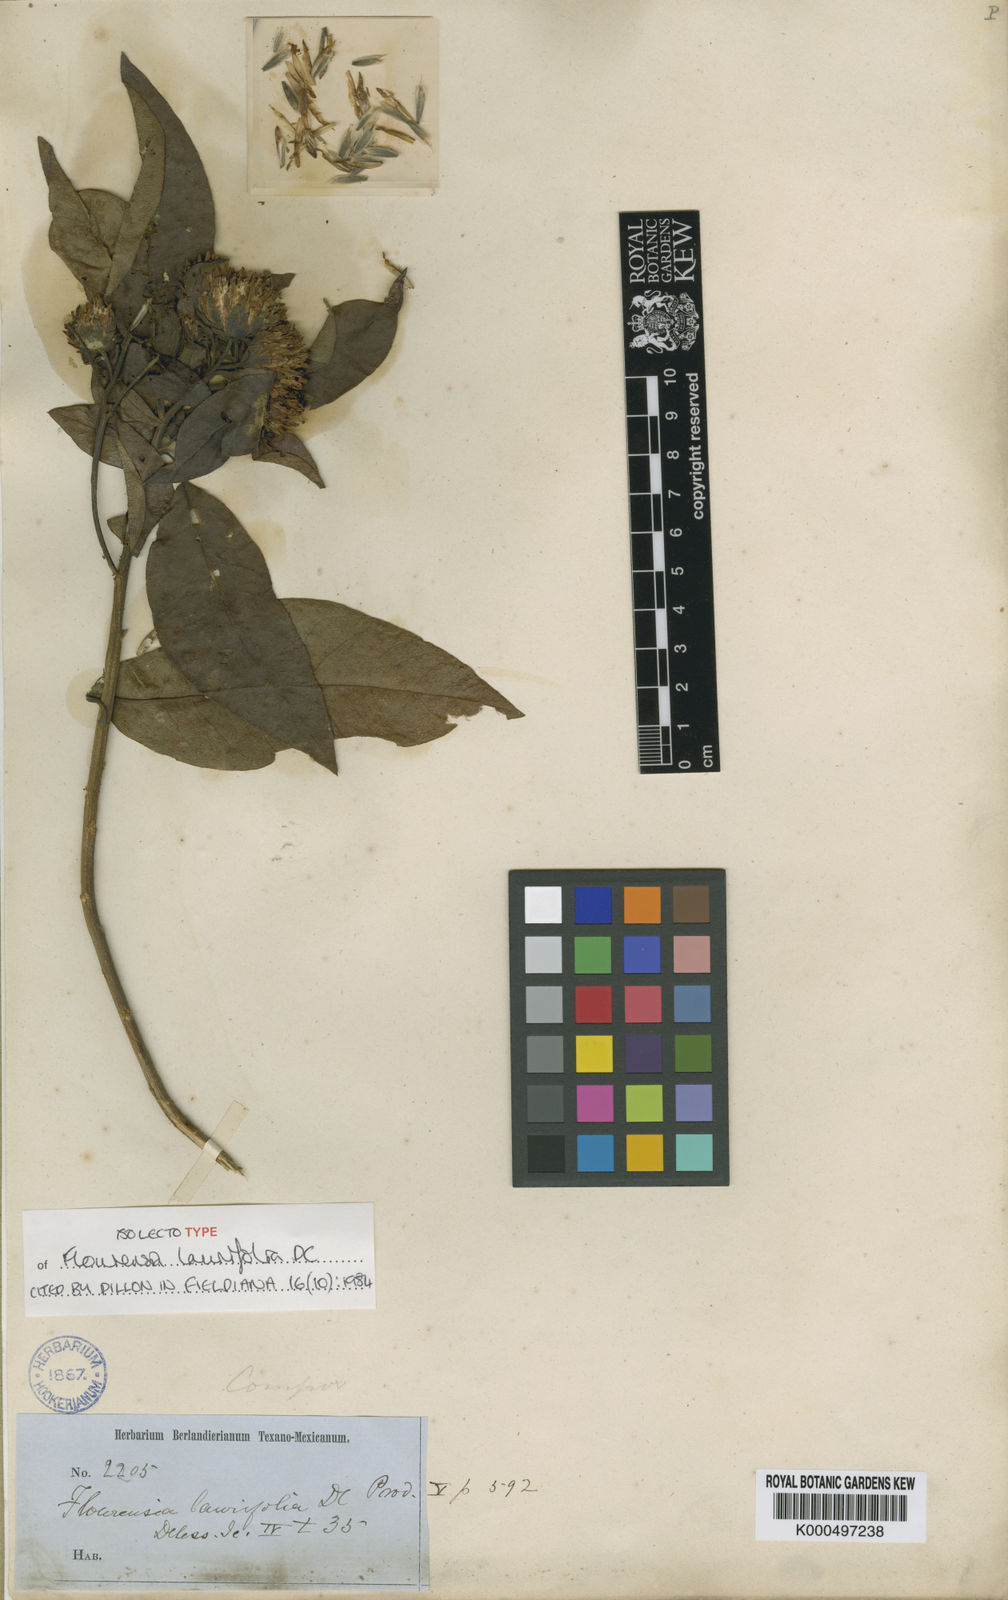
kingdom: Plantae
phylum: Tracheophyta
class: Magnoliopsida
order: Asterales
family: Asteraceae
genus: Flourensia
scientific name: Flourensia laurifolia
